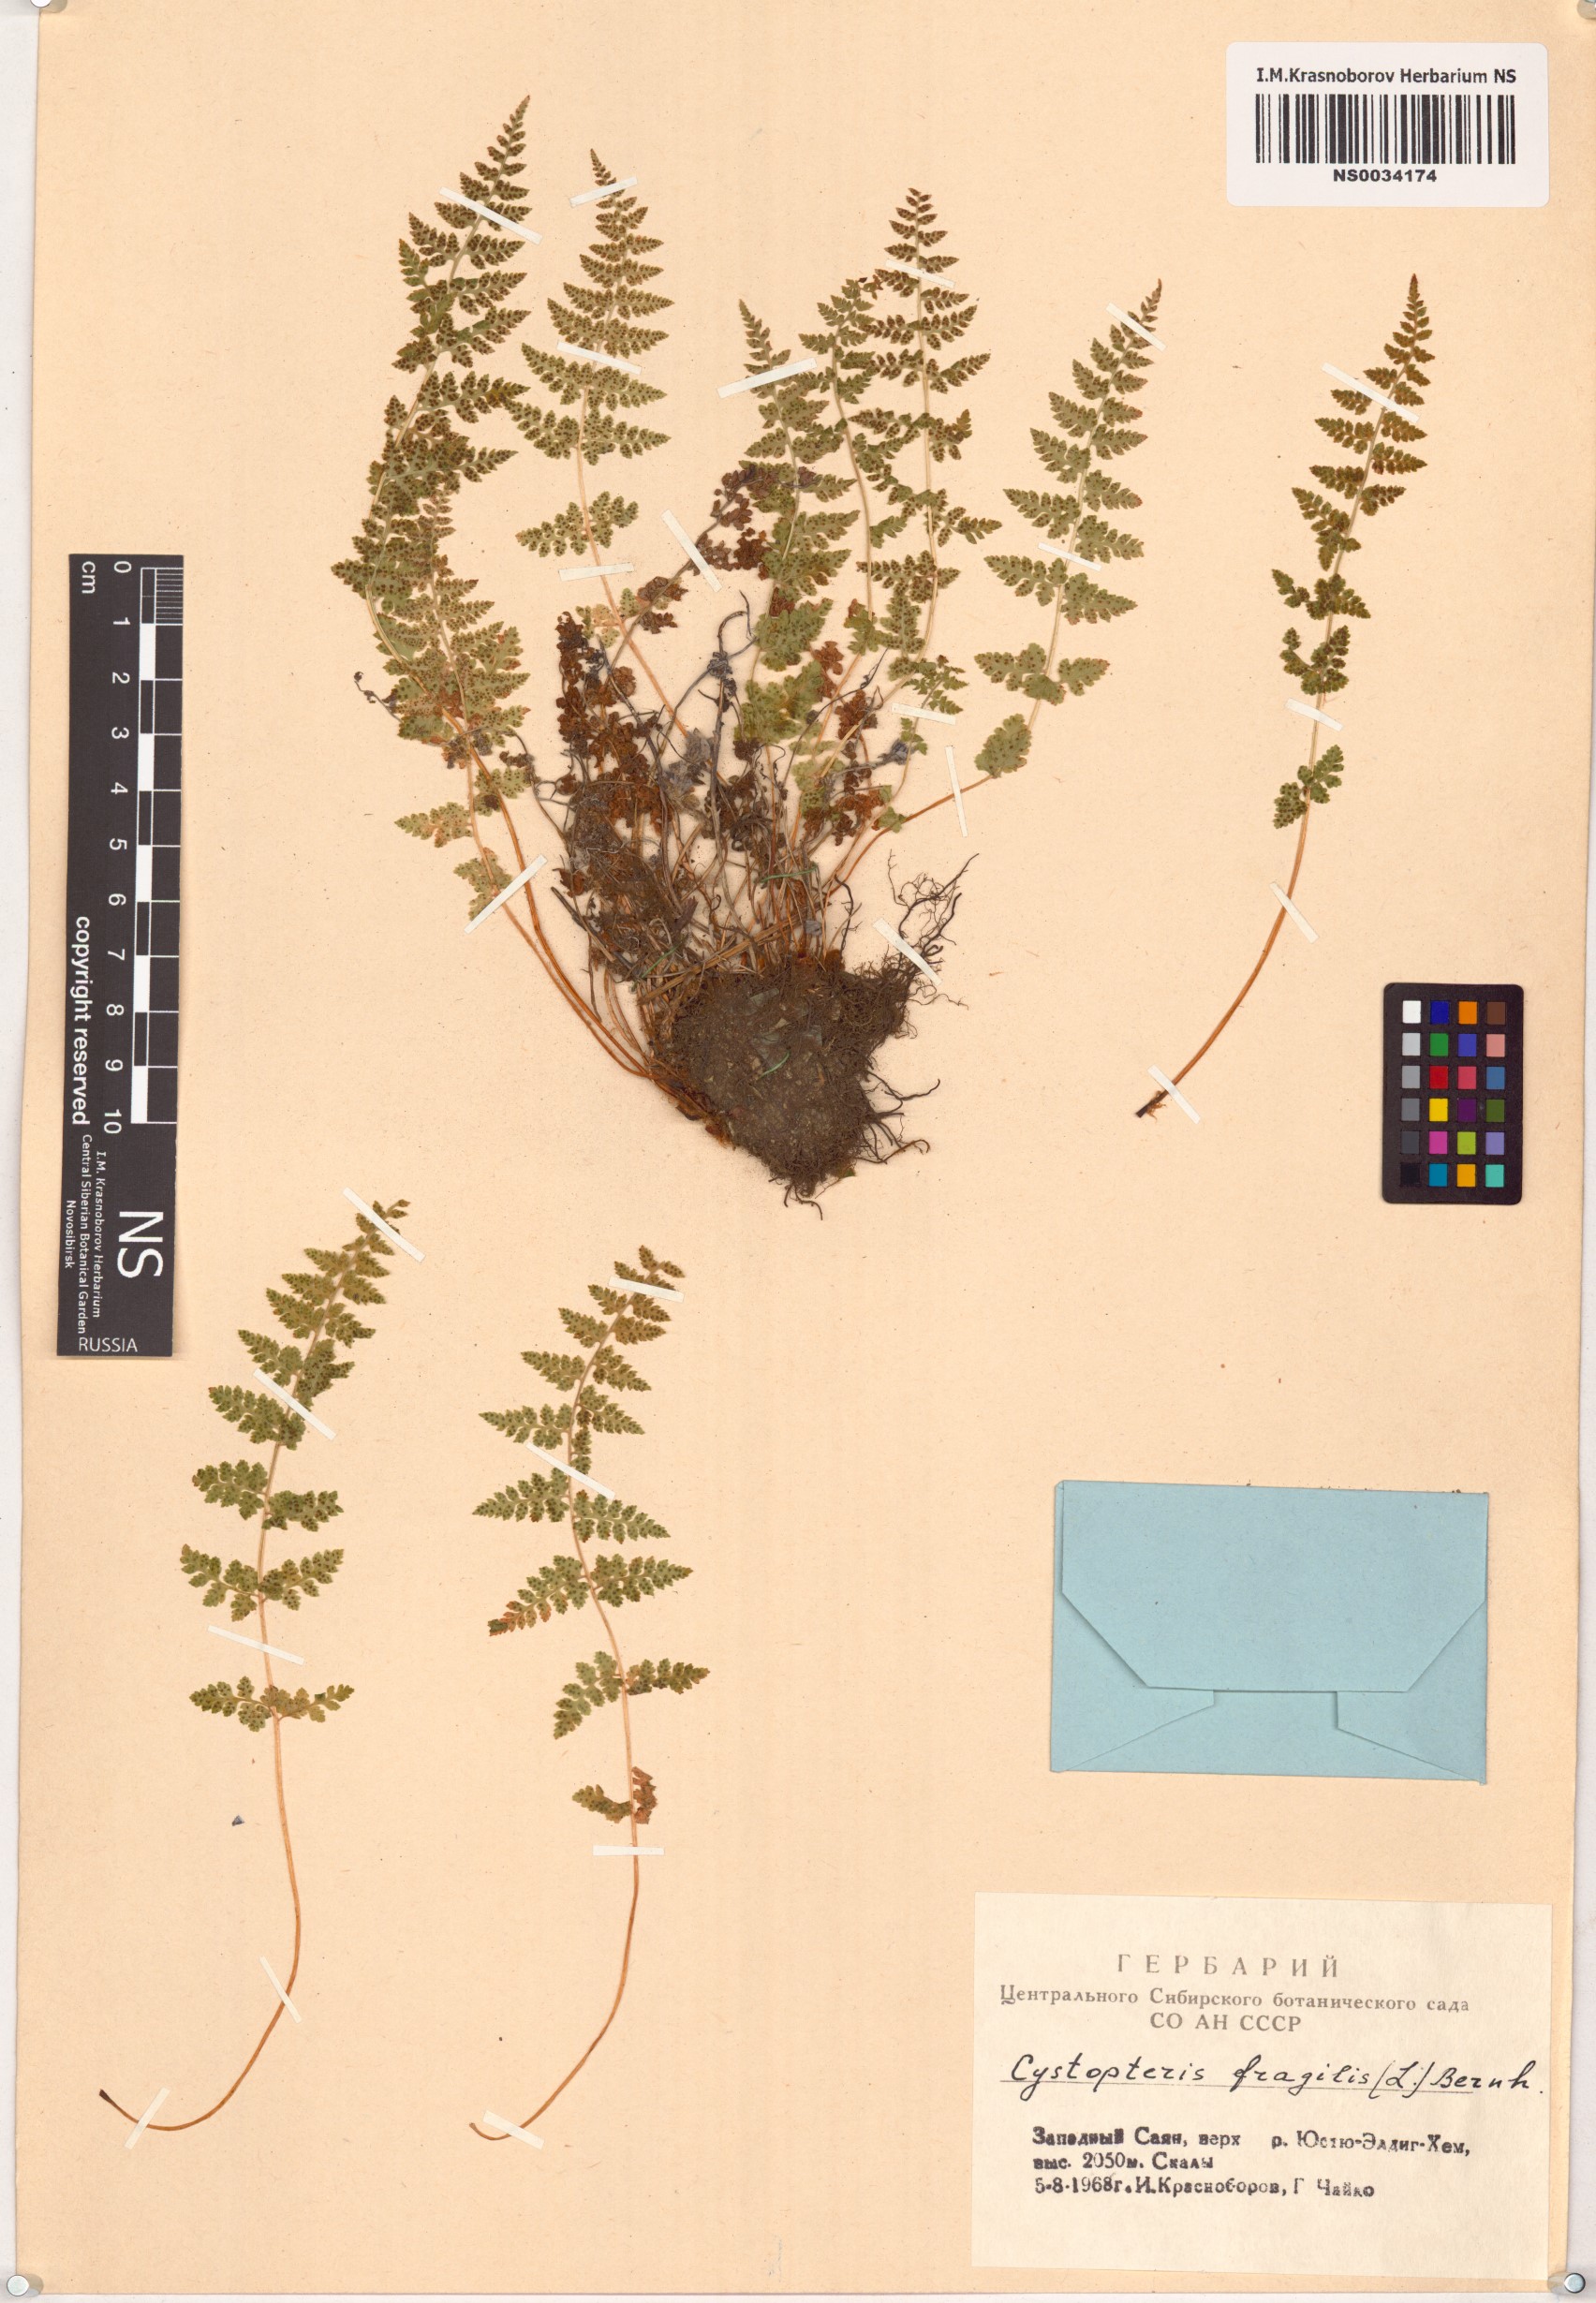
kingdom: Plantae
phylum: Tracheophyta
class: Polypodiopsida
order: Polypodiales
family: Cystopteridaceae
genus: Cystopteris
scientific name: Cystopteris fragilis
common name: Brittle bladder fern
